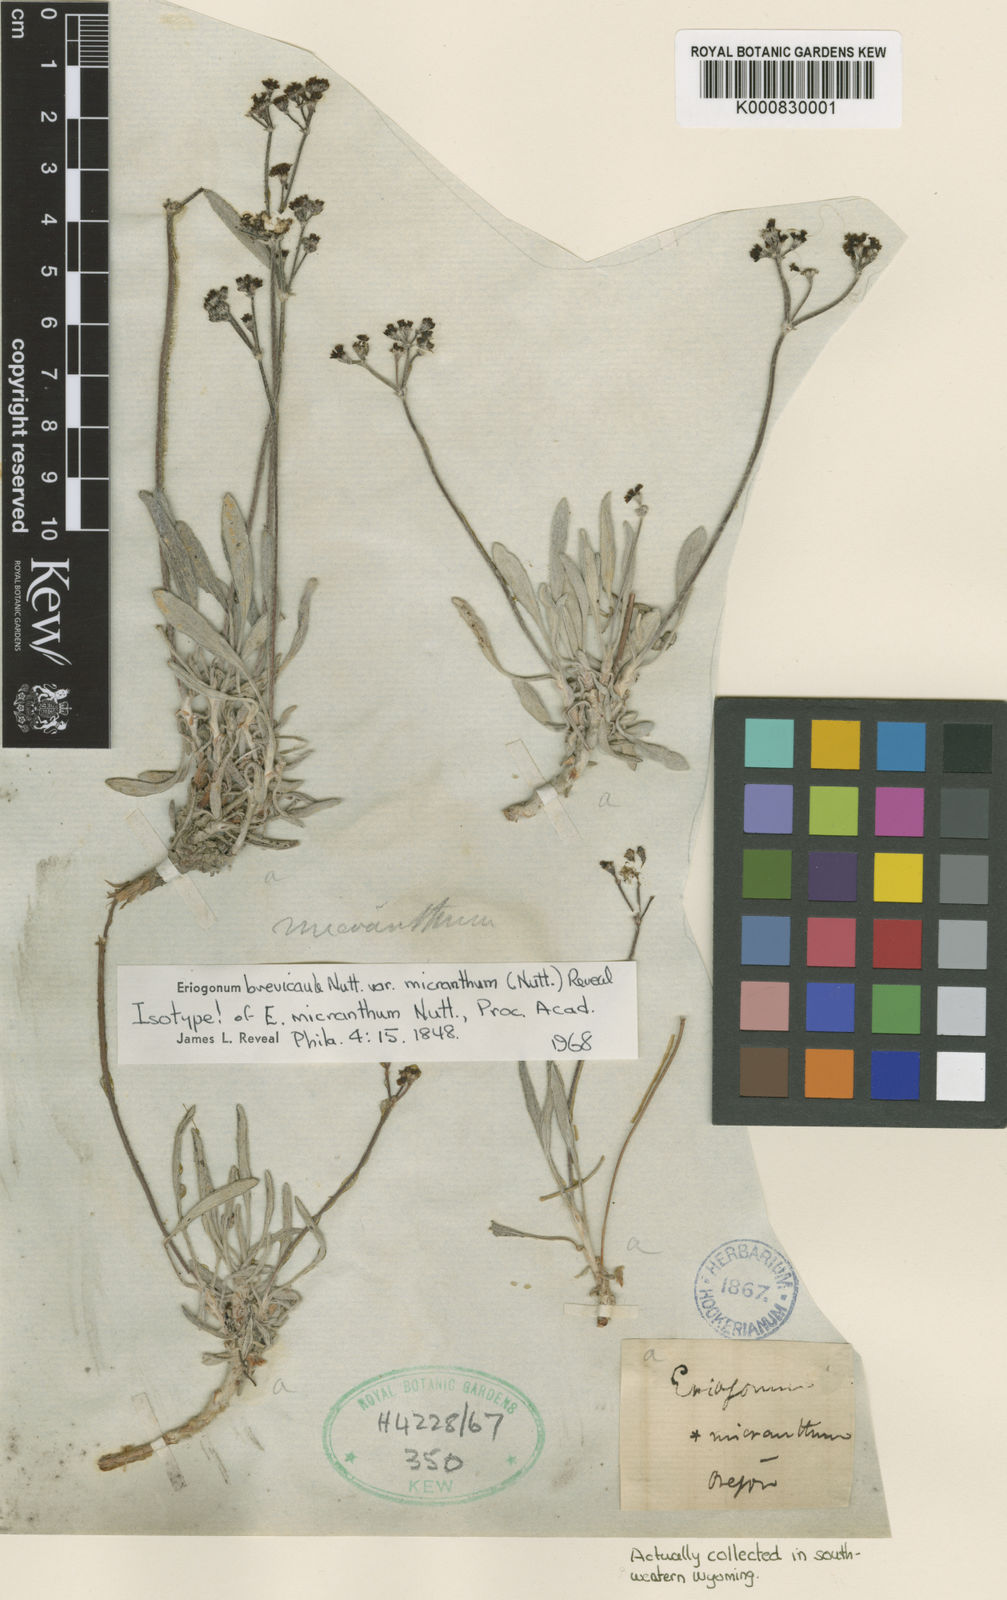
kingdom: Plantae
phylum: Tracheophyta
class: Magnoliopsida
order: Caryophyllales
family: Polygonaceae
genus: Eriogonum
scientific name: Eriogonum brevicaule
